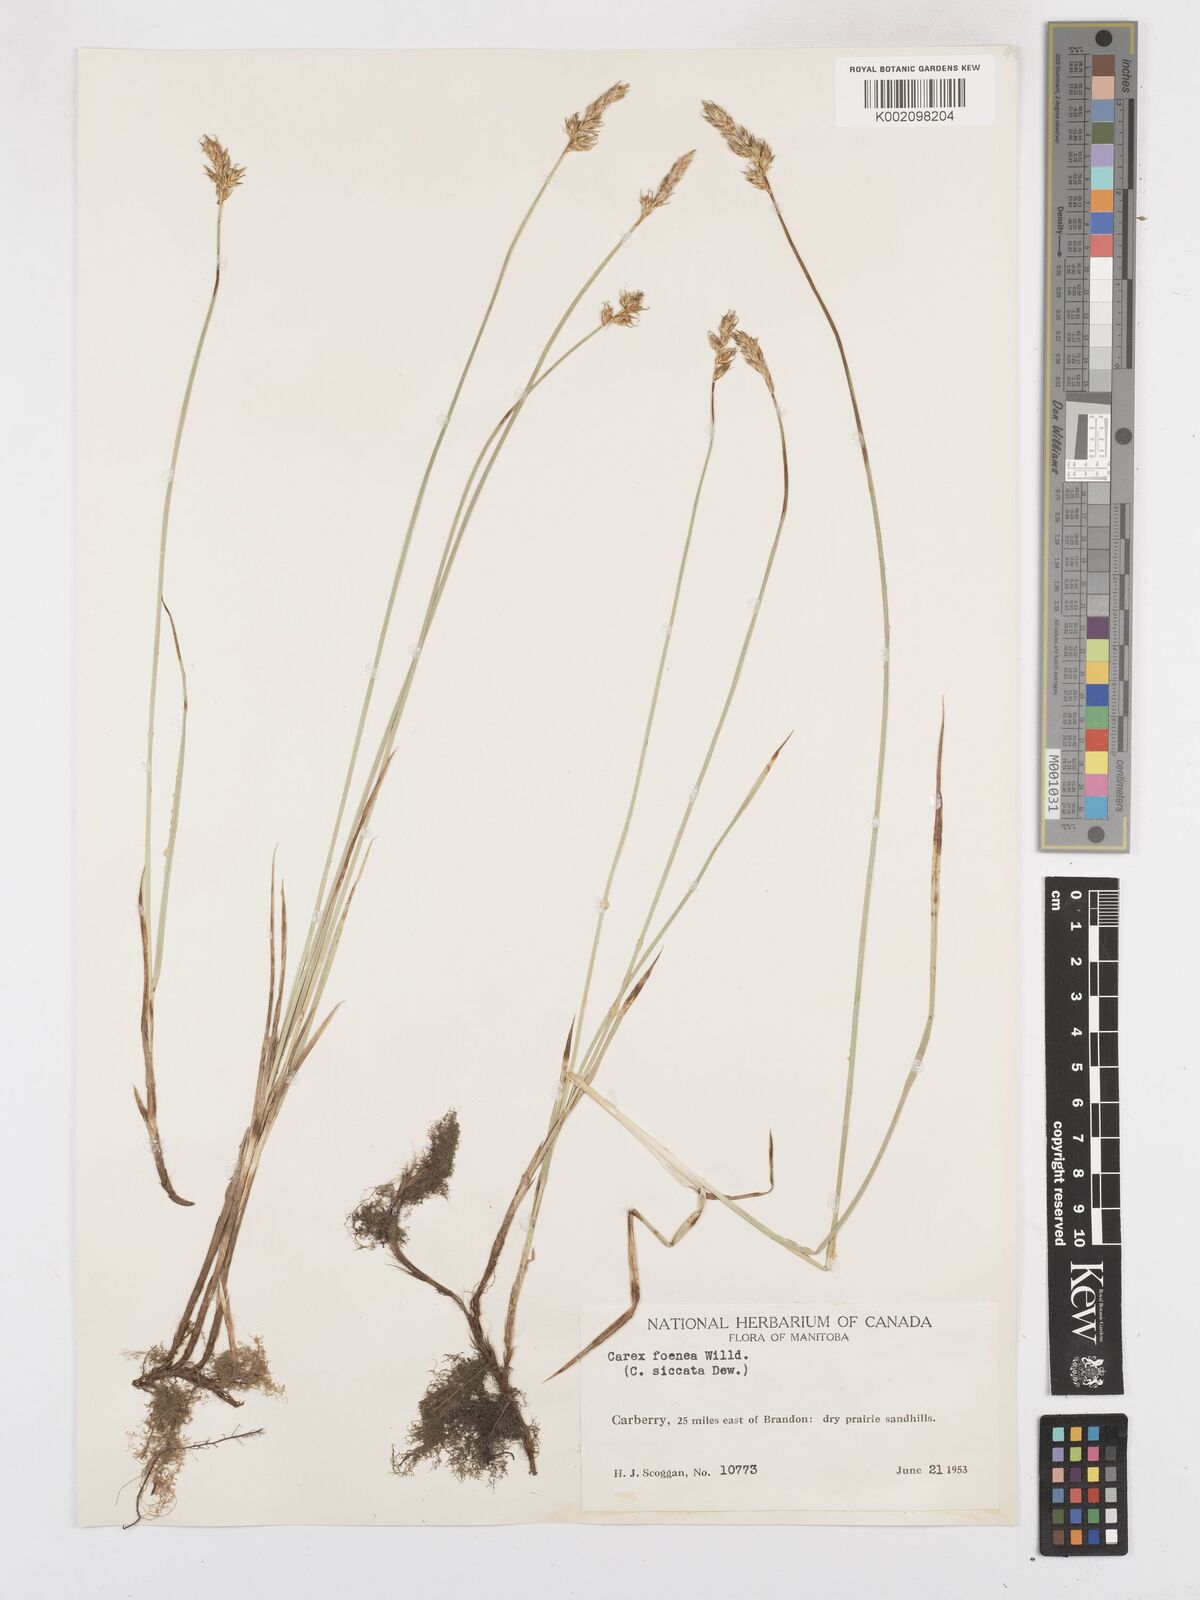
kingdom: Plantae
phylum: Tracheophyta
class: Liliopsida
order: Poales
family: Cyperaceae
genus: Carex
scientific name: Carex foenea
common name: Bronze sedge
